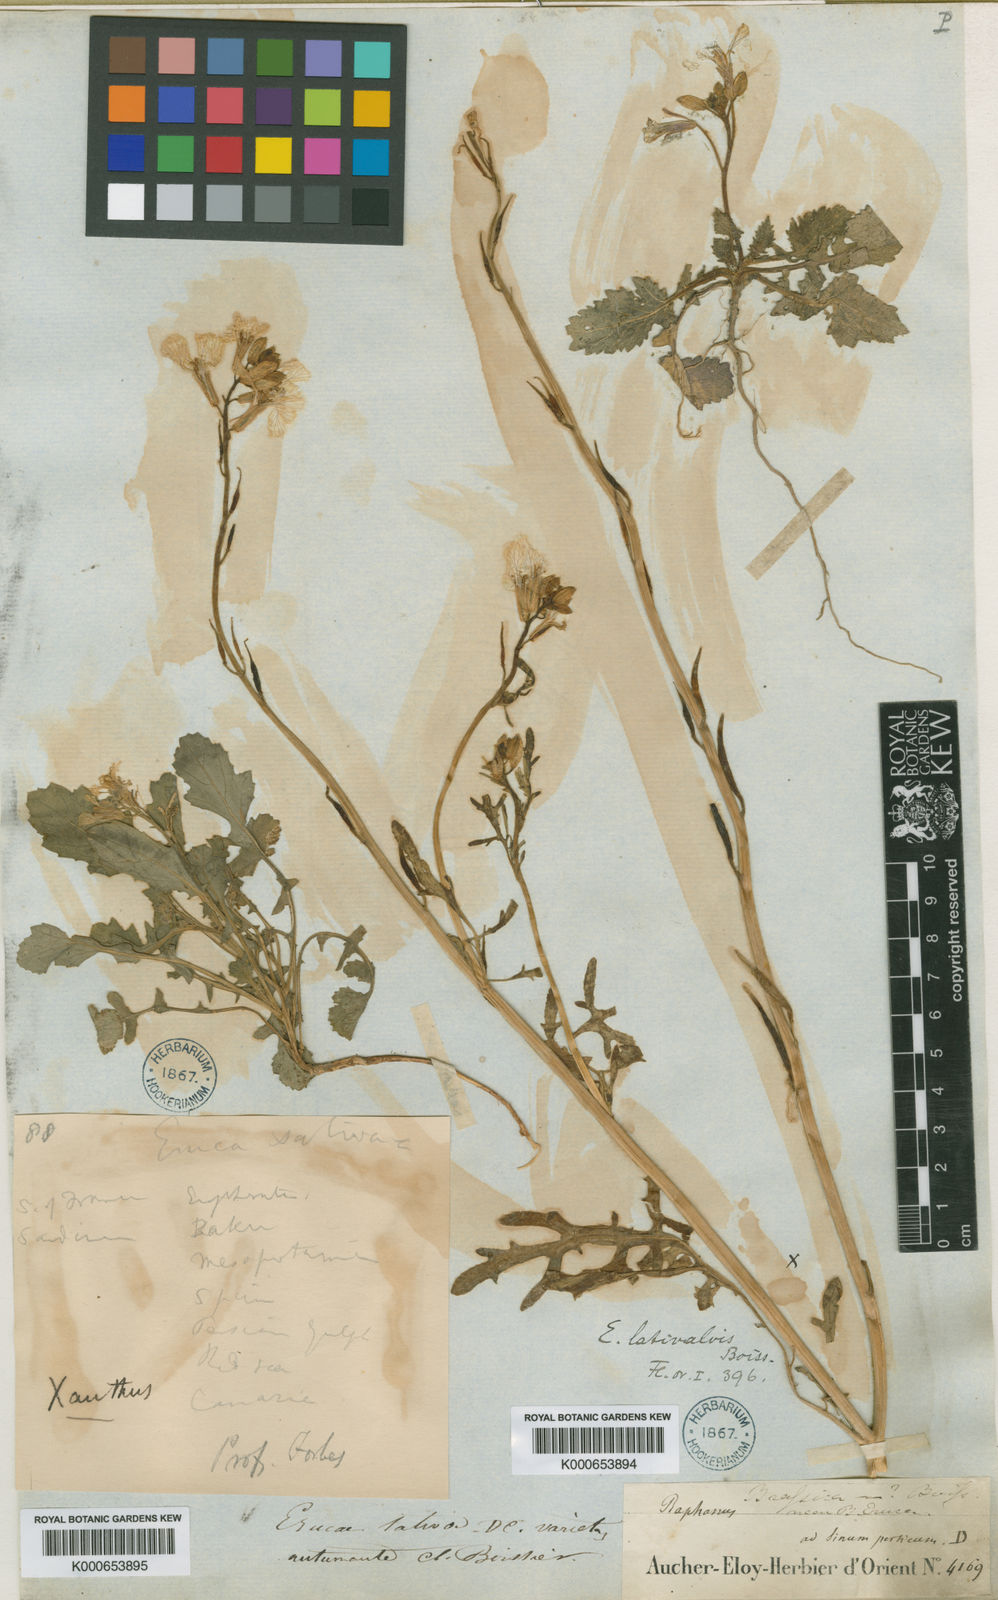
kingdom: Plantae
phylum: Tracheophyta
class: Magnoliopsida
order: Brassicales
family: Brassicaceae
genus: Eruca
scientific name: Eruca vesicaria
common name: Garden rocket
